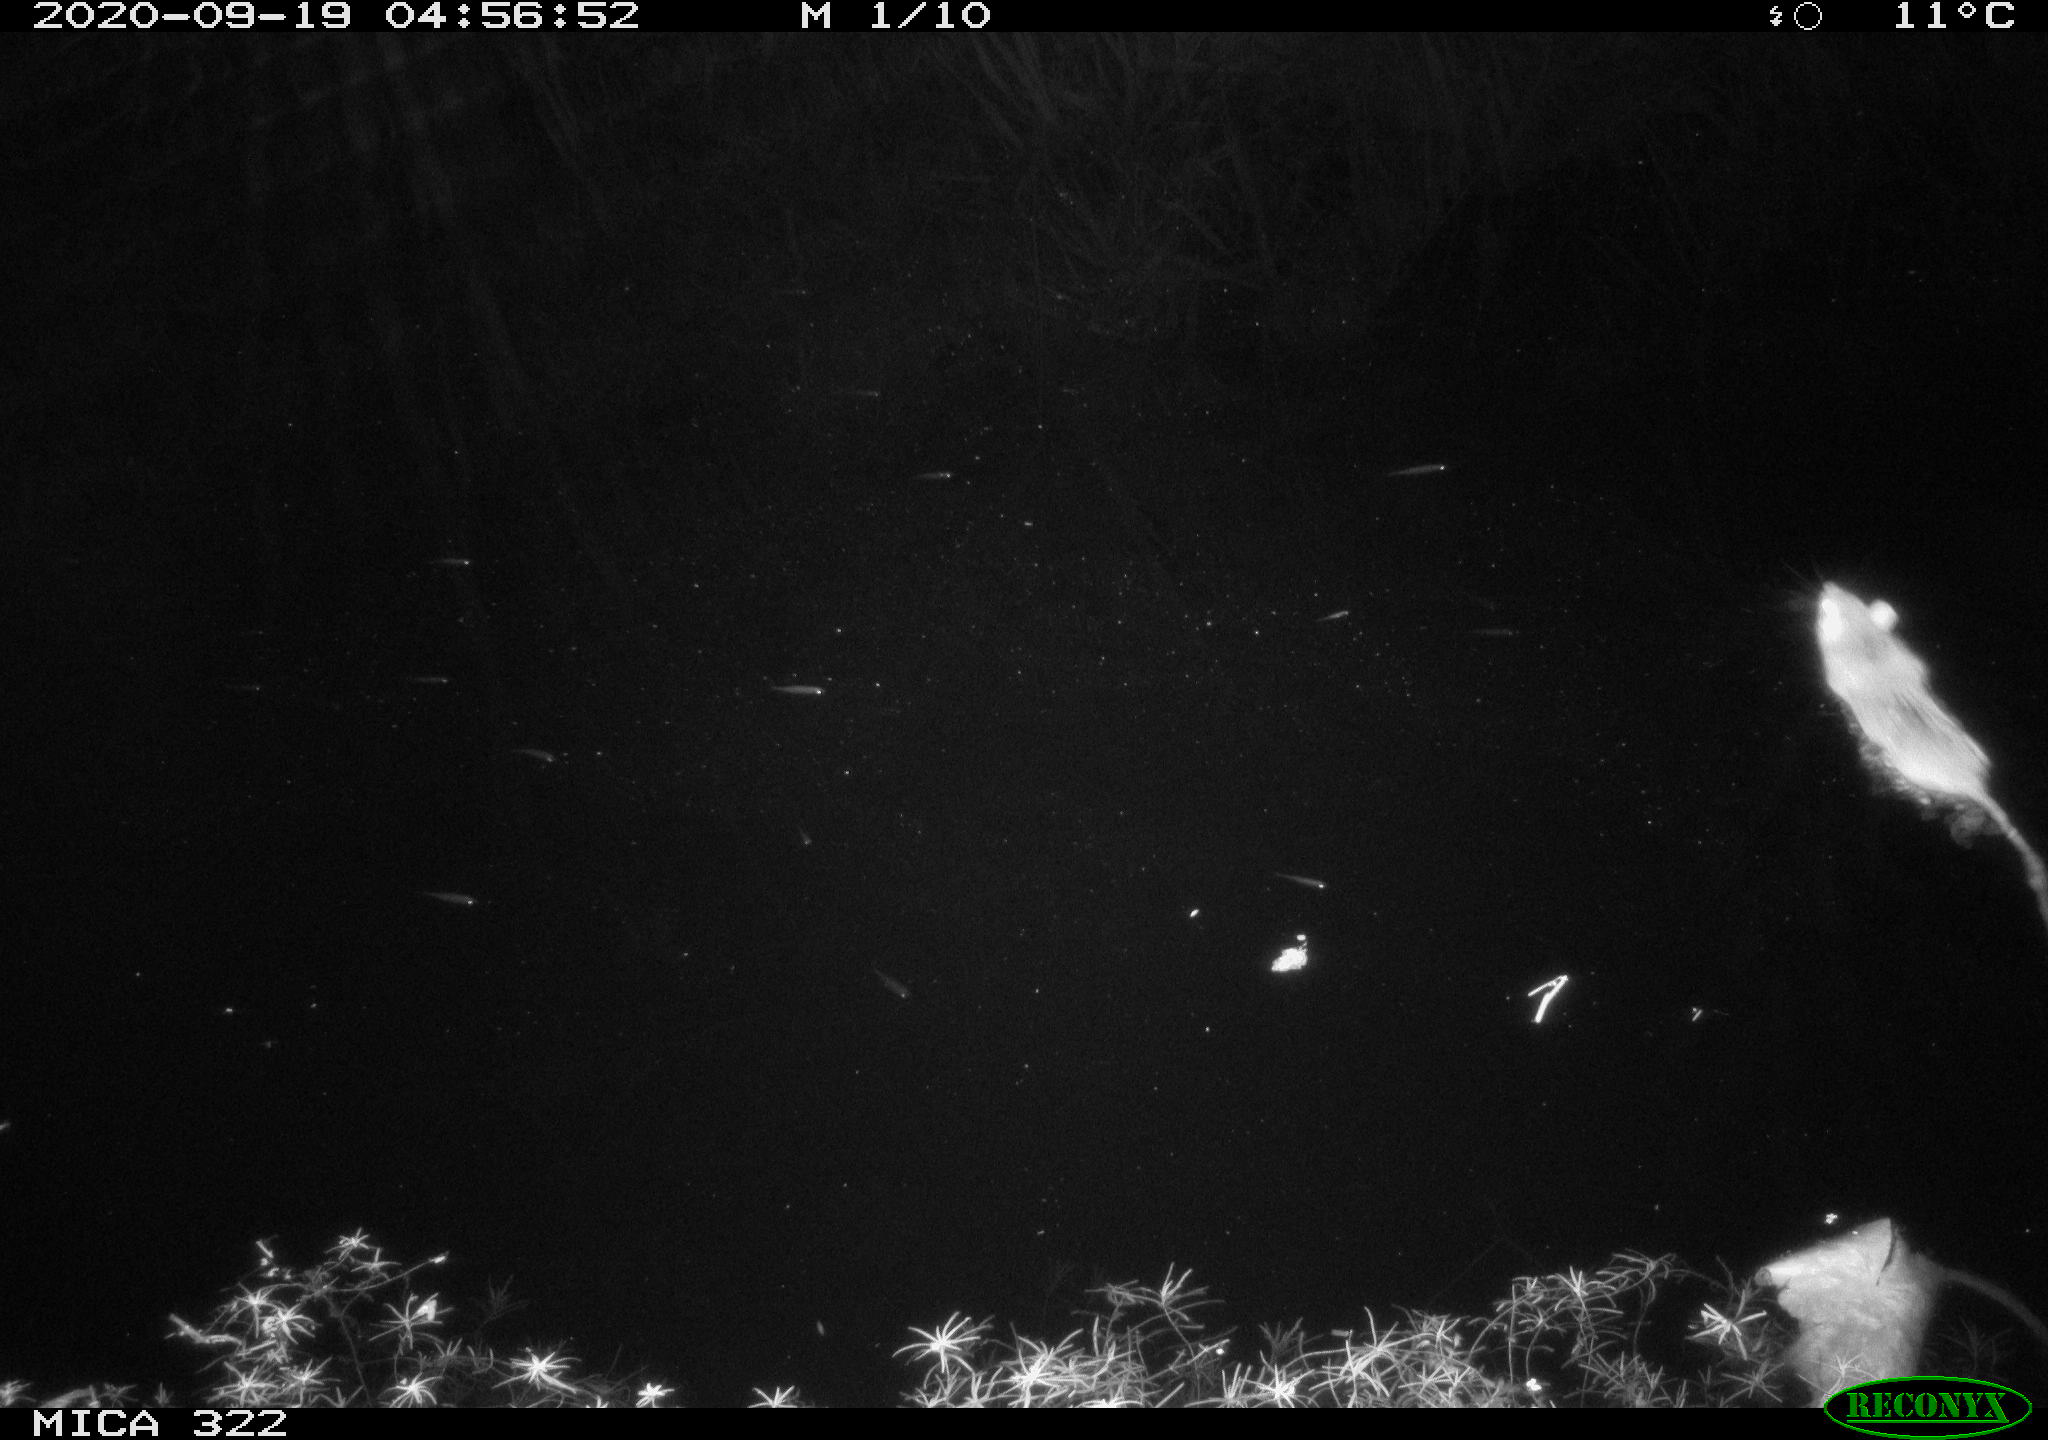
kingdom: Animalia
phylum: Chordata
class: Mammalia
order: Rodentia
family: Muridae
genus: Rattus
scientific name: Rattus norvegicus
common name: Brown rat
